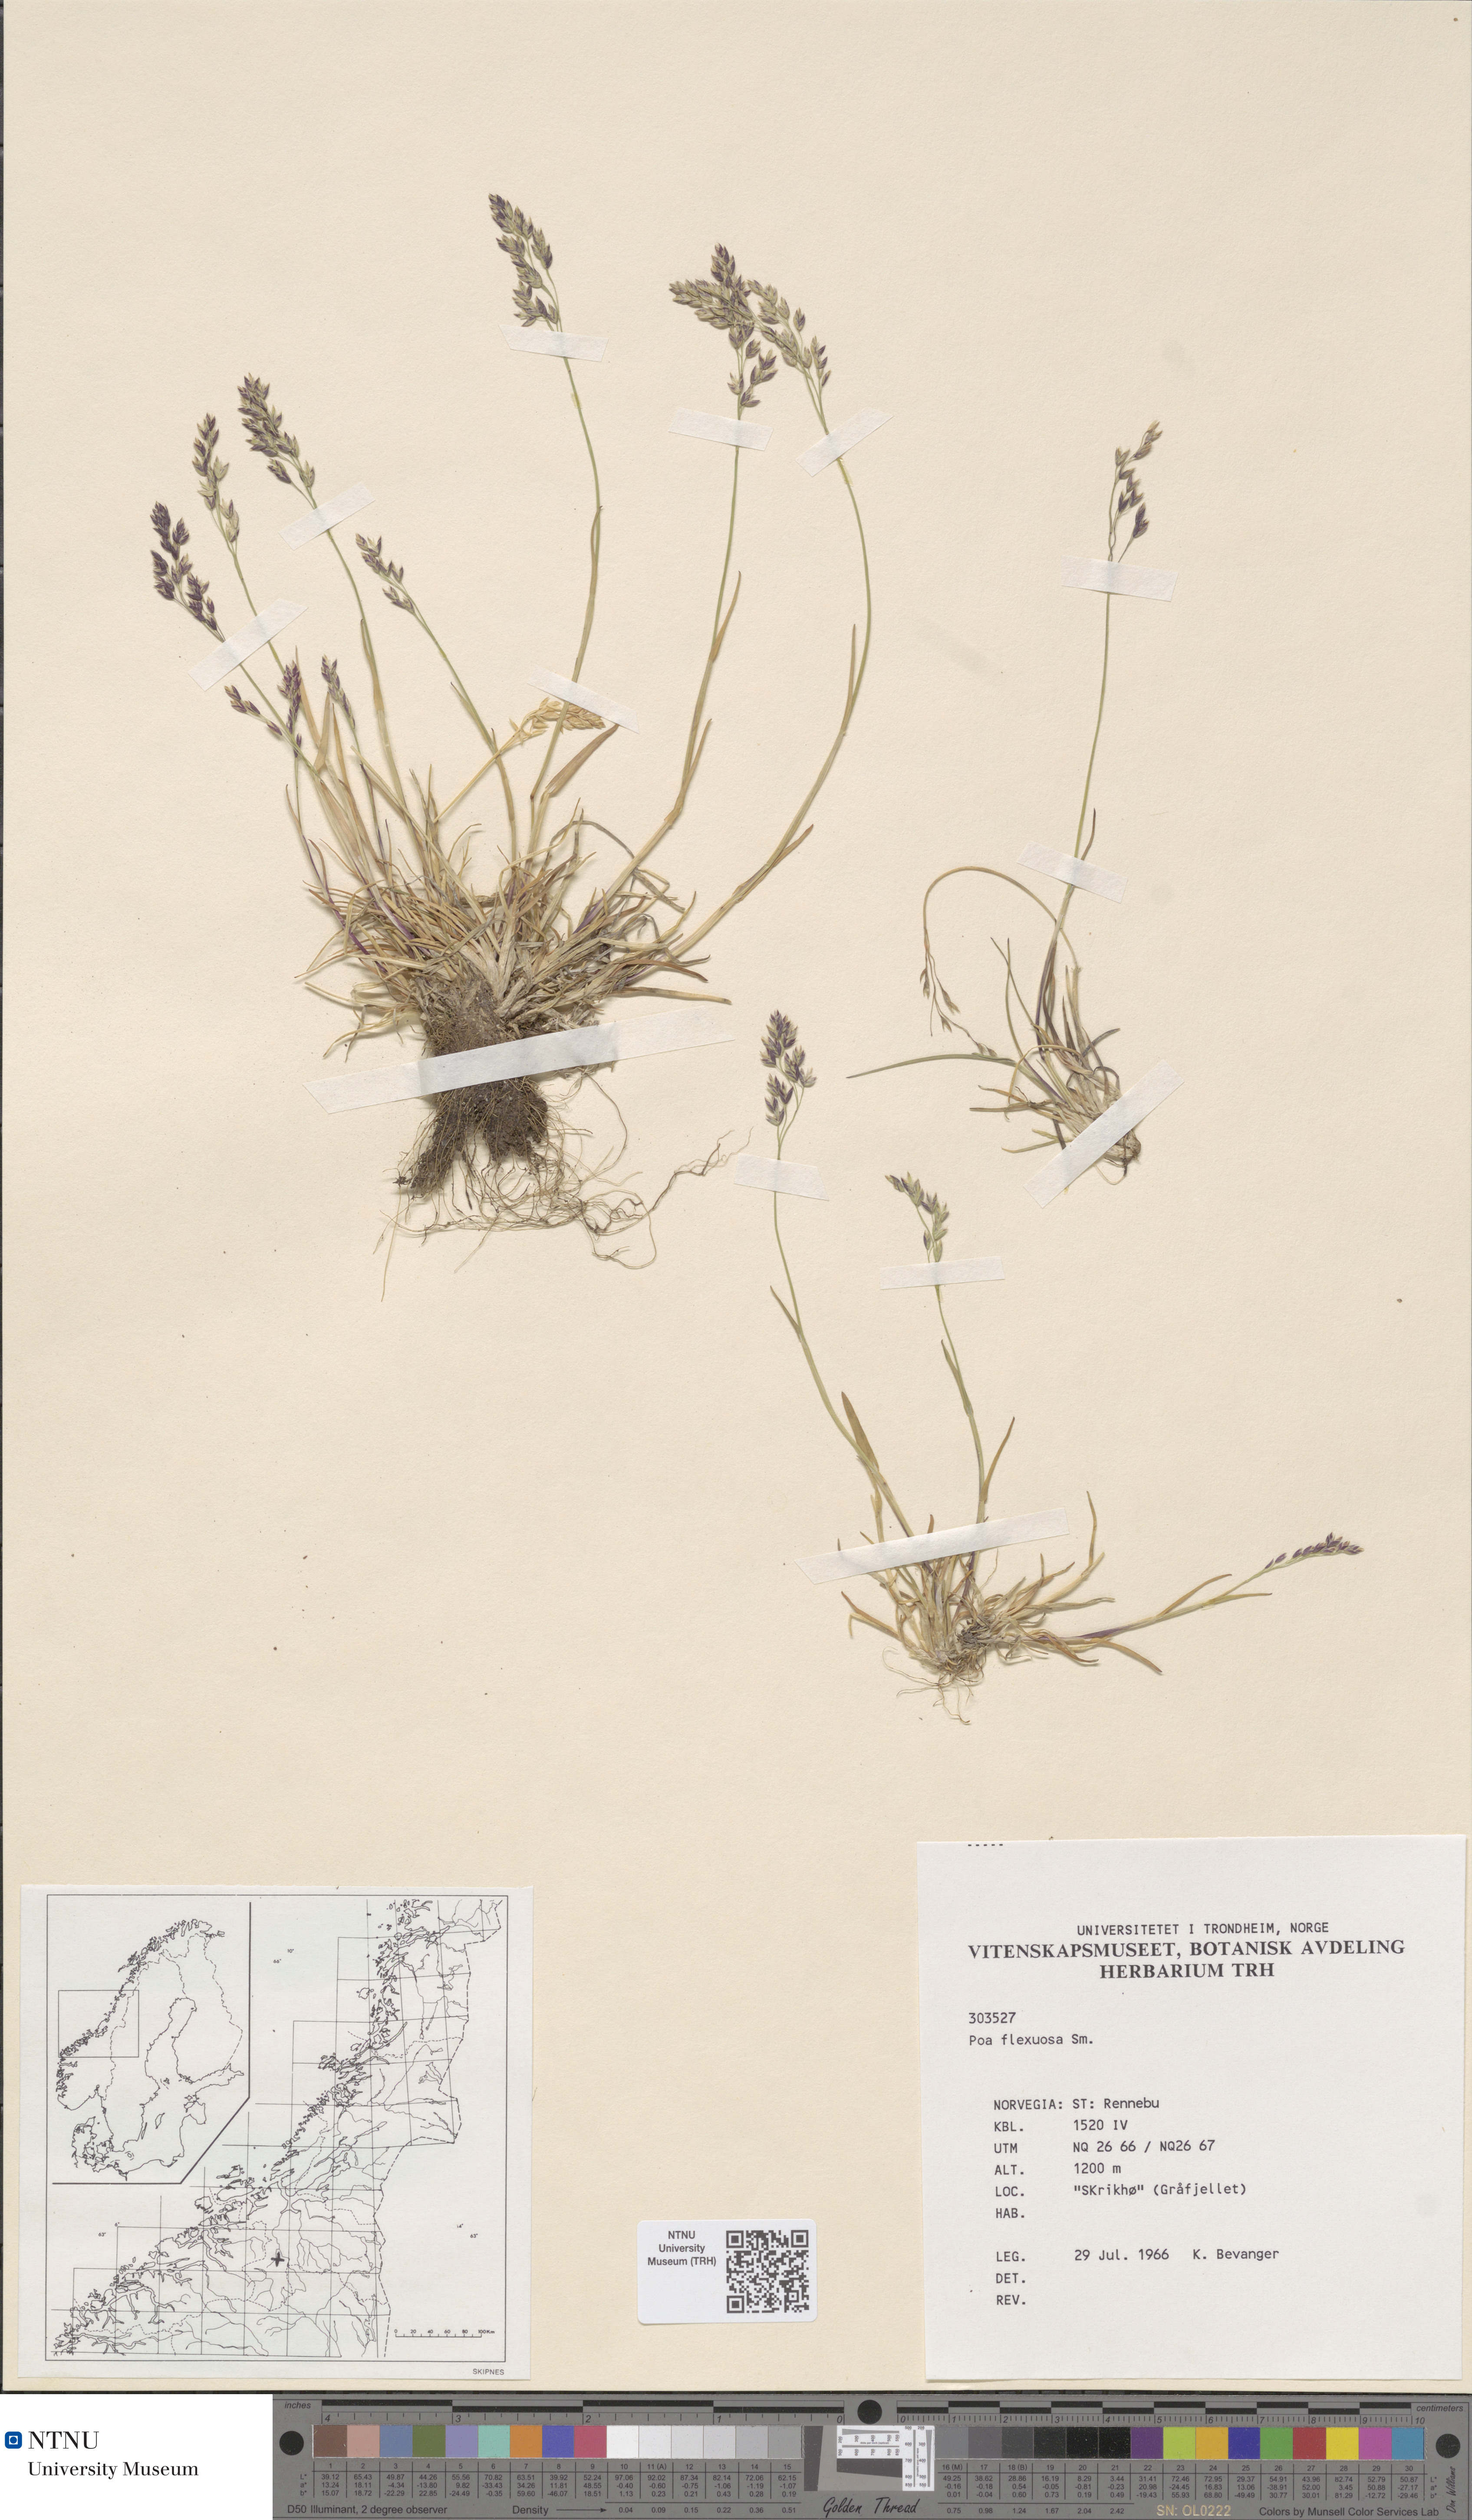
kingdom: Plantae
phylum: Tracheophyta
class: Liliopsida
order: Poales
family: Poaceae
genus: Poa
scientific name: Poa flexuosa
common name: Wavy meadow-grass
